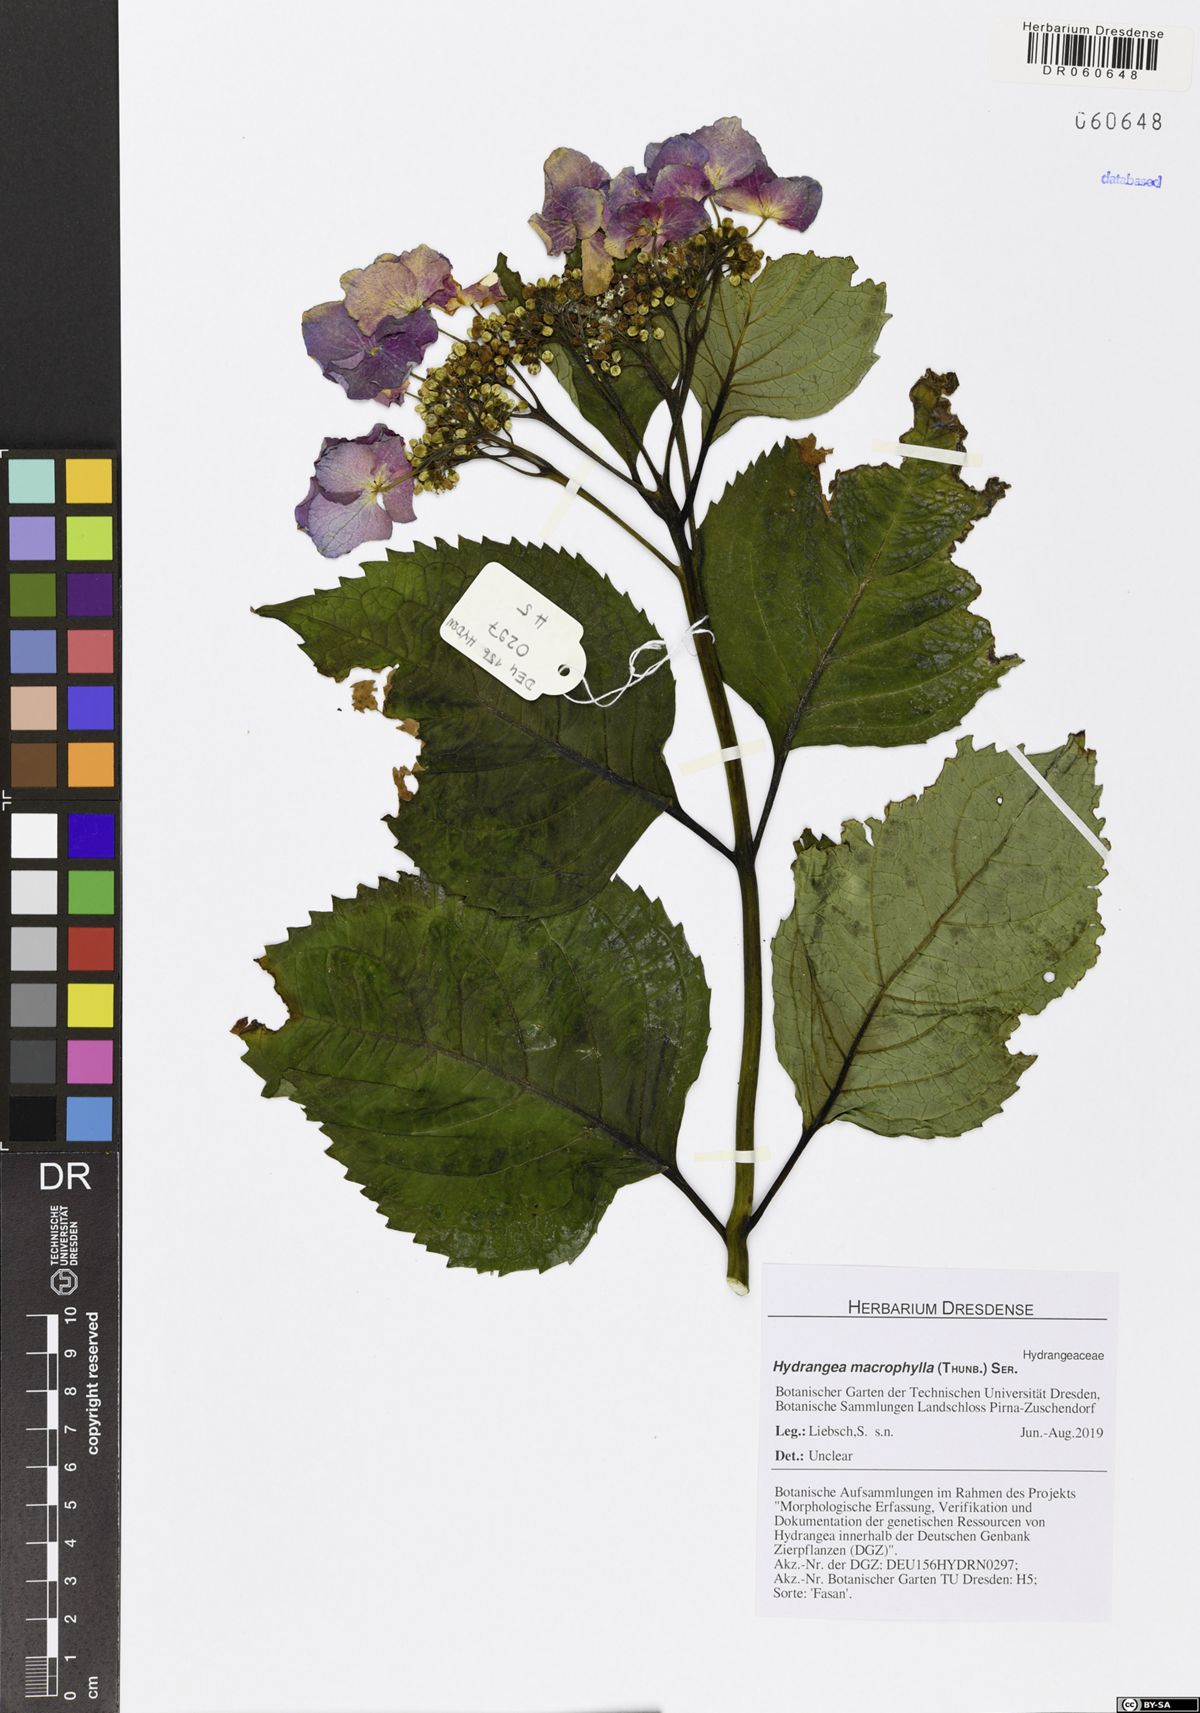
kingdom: Plantae
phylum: Tracheophyta
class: Magnoliopsida
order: Cornales
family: Hydrangeaceae
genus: Hydrangea
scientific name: Hydrangea macrophylla
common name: Hydrangea
